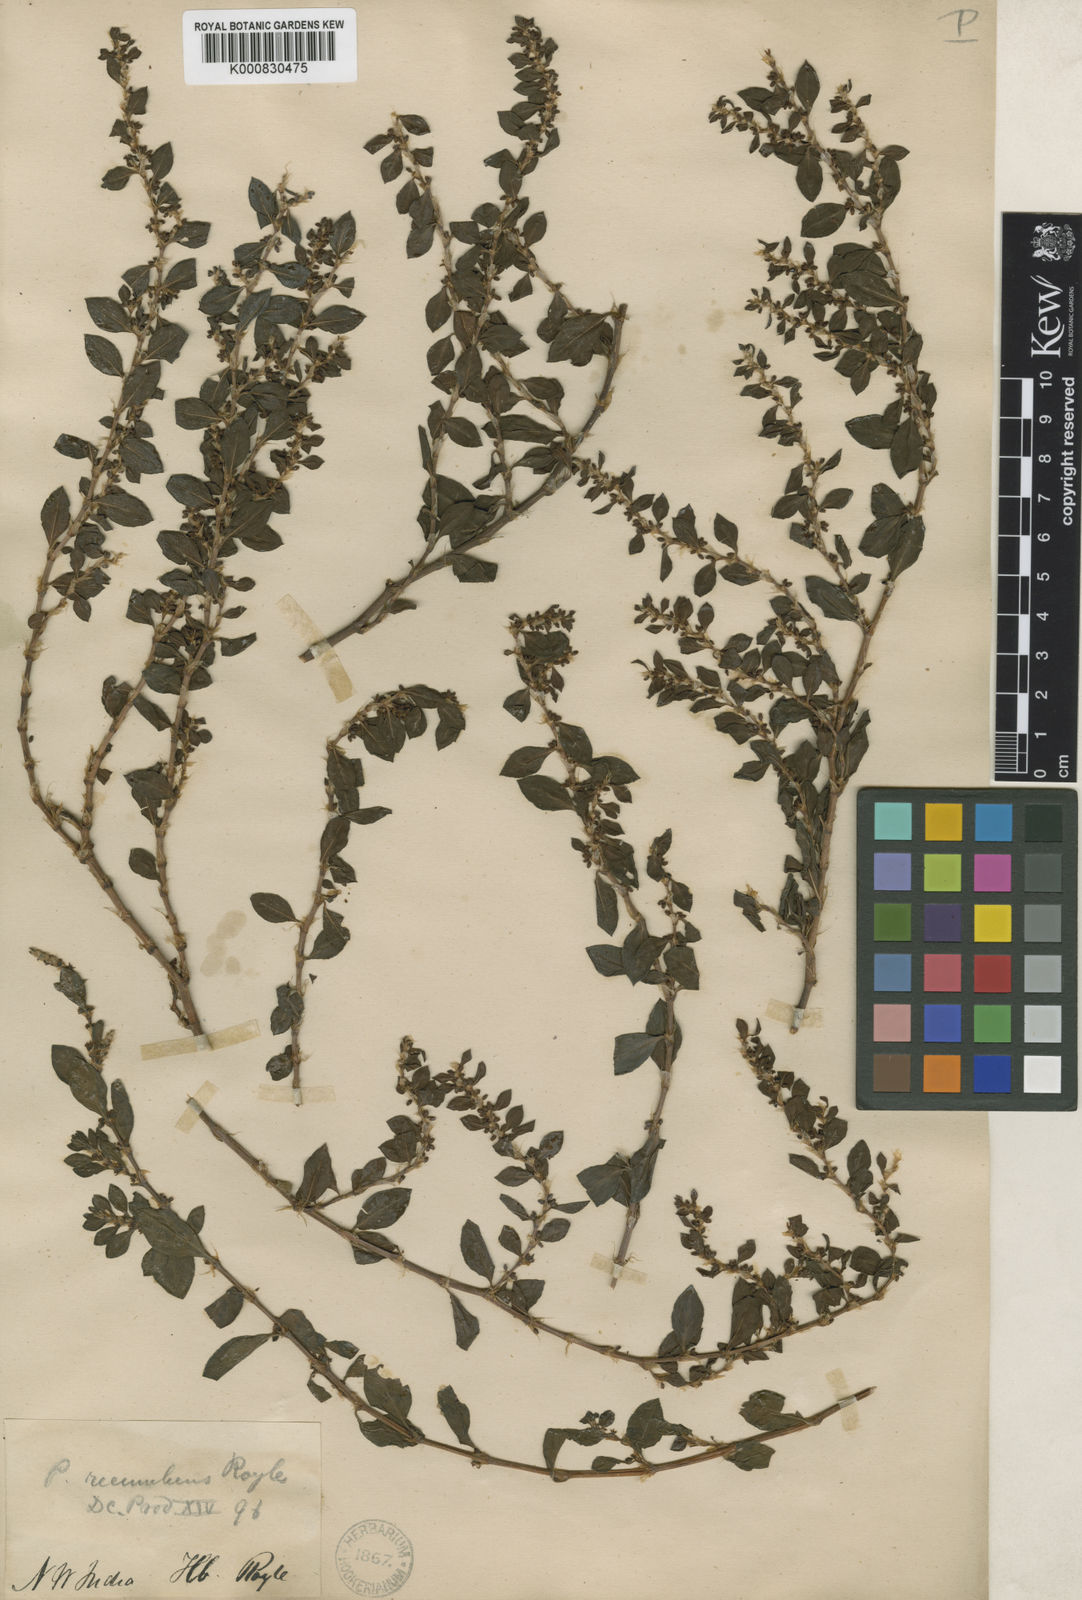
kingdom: Plantae
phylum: Tracheophyta
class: Magnoliopsida
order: Caryophyllales
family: Polygonaceae
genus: Polygonum
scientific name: Polygonum recumbens
